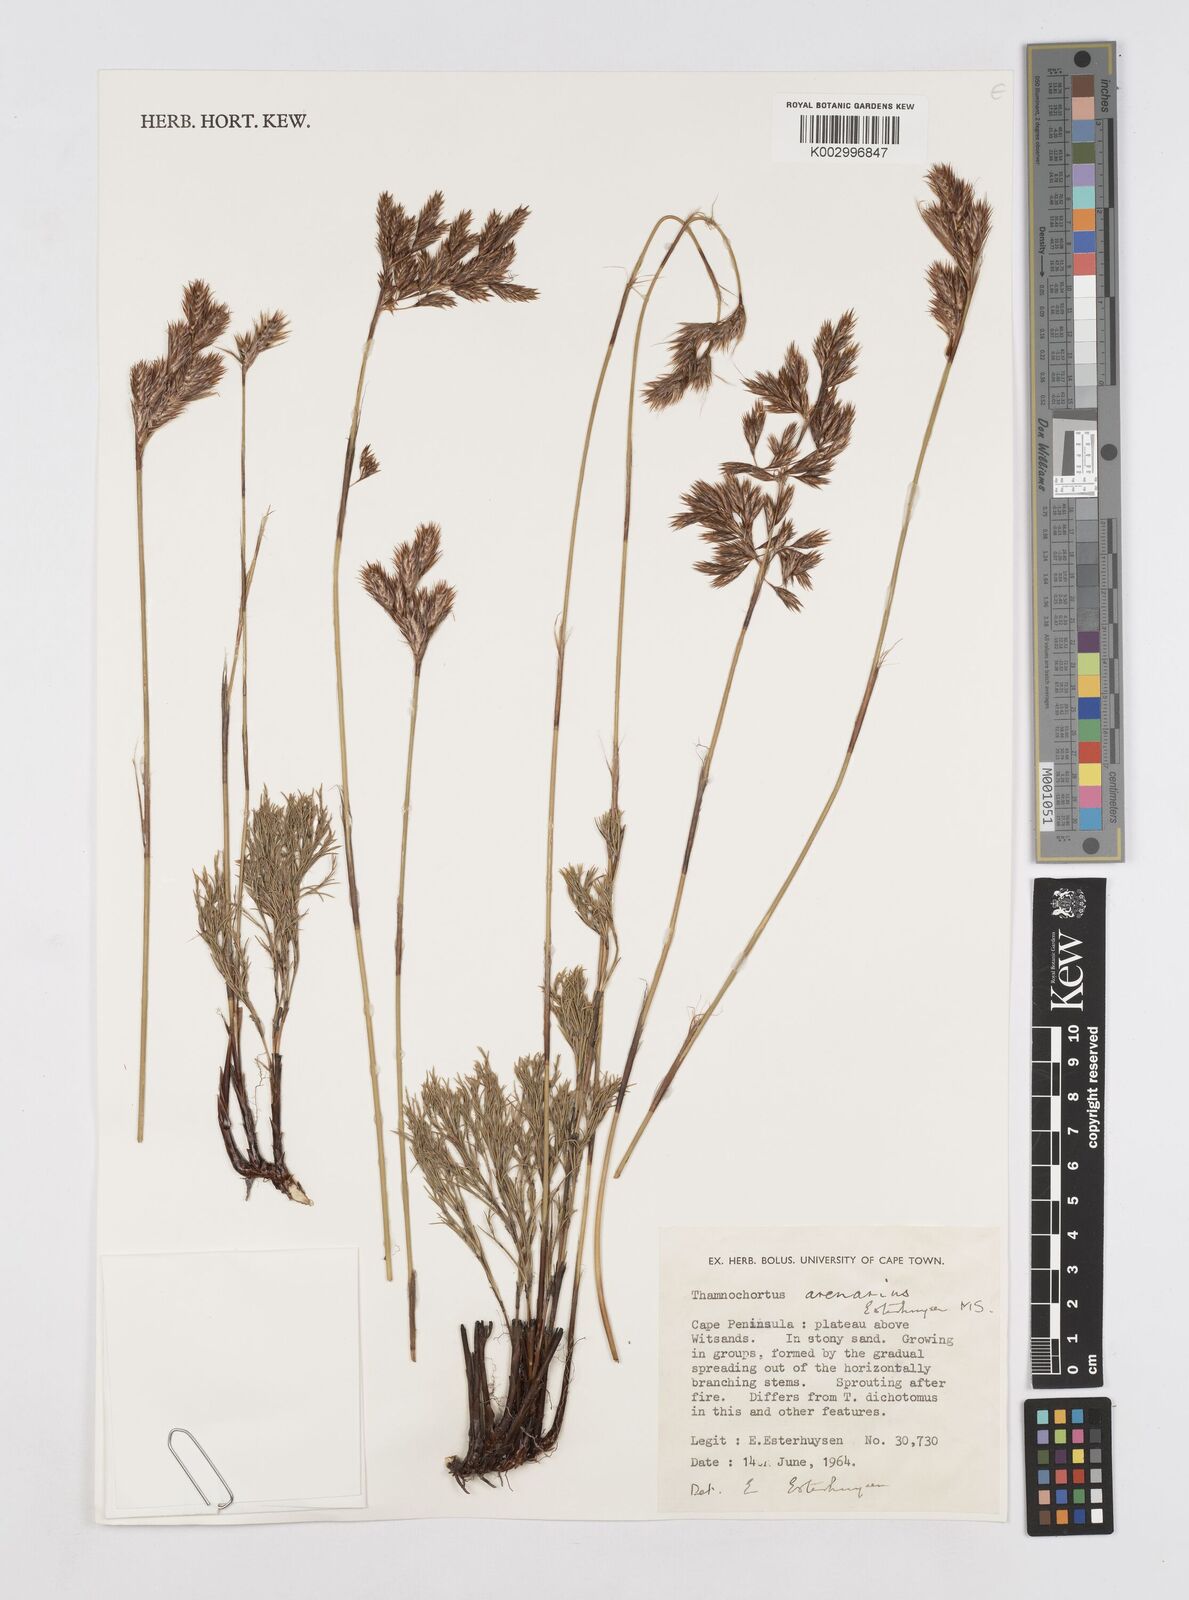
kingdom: Plantae
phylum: Tracheophyta
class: Liliopsida
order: Poales
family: Restionaceae
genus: Thamnochortus
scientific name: Thamnochortus arenarius
